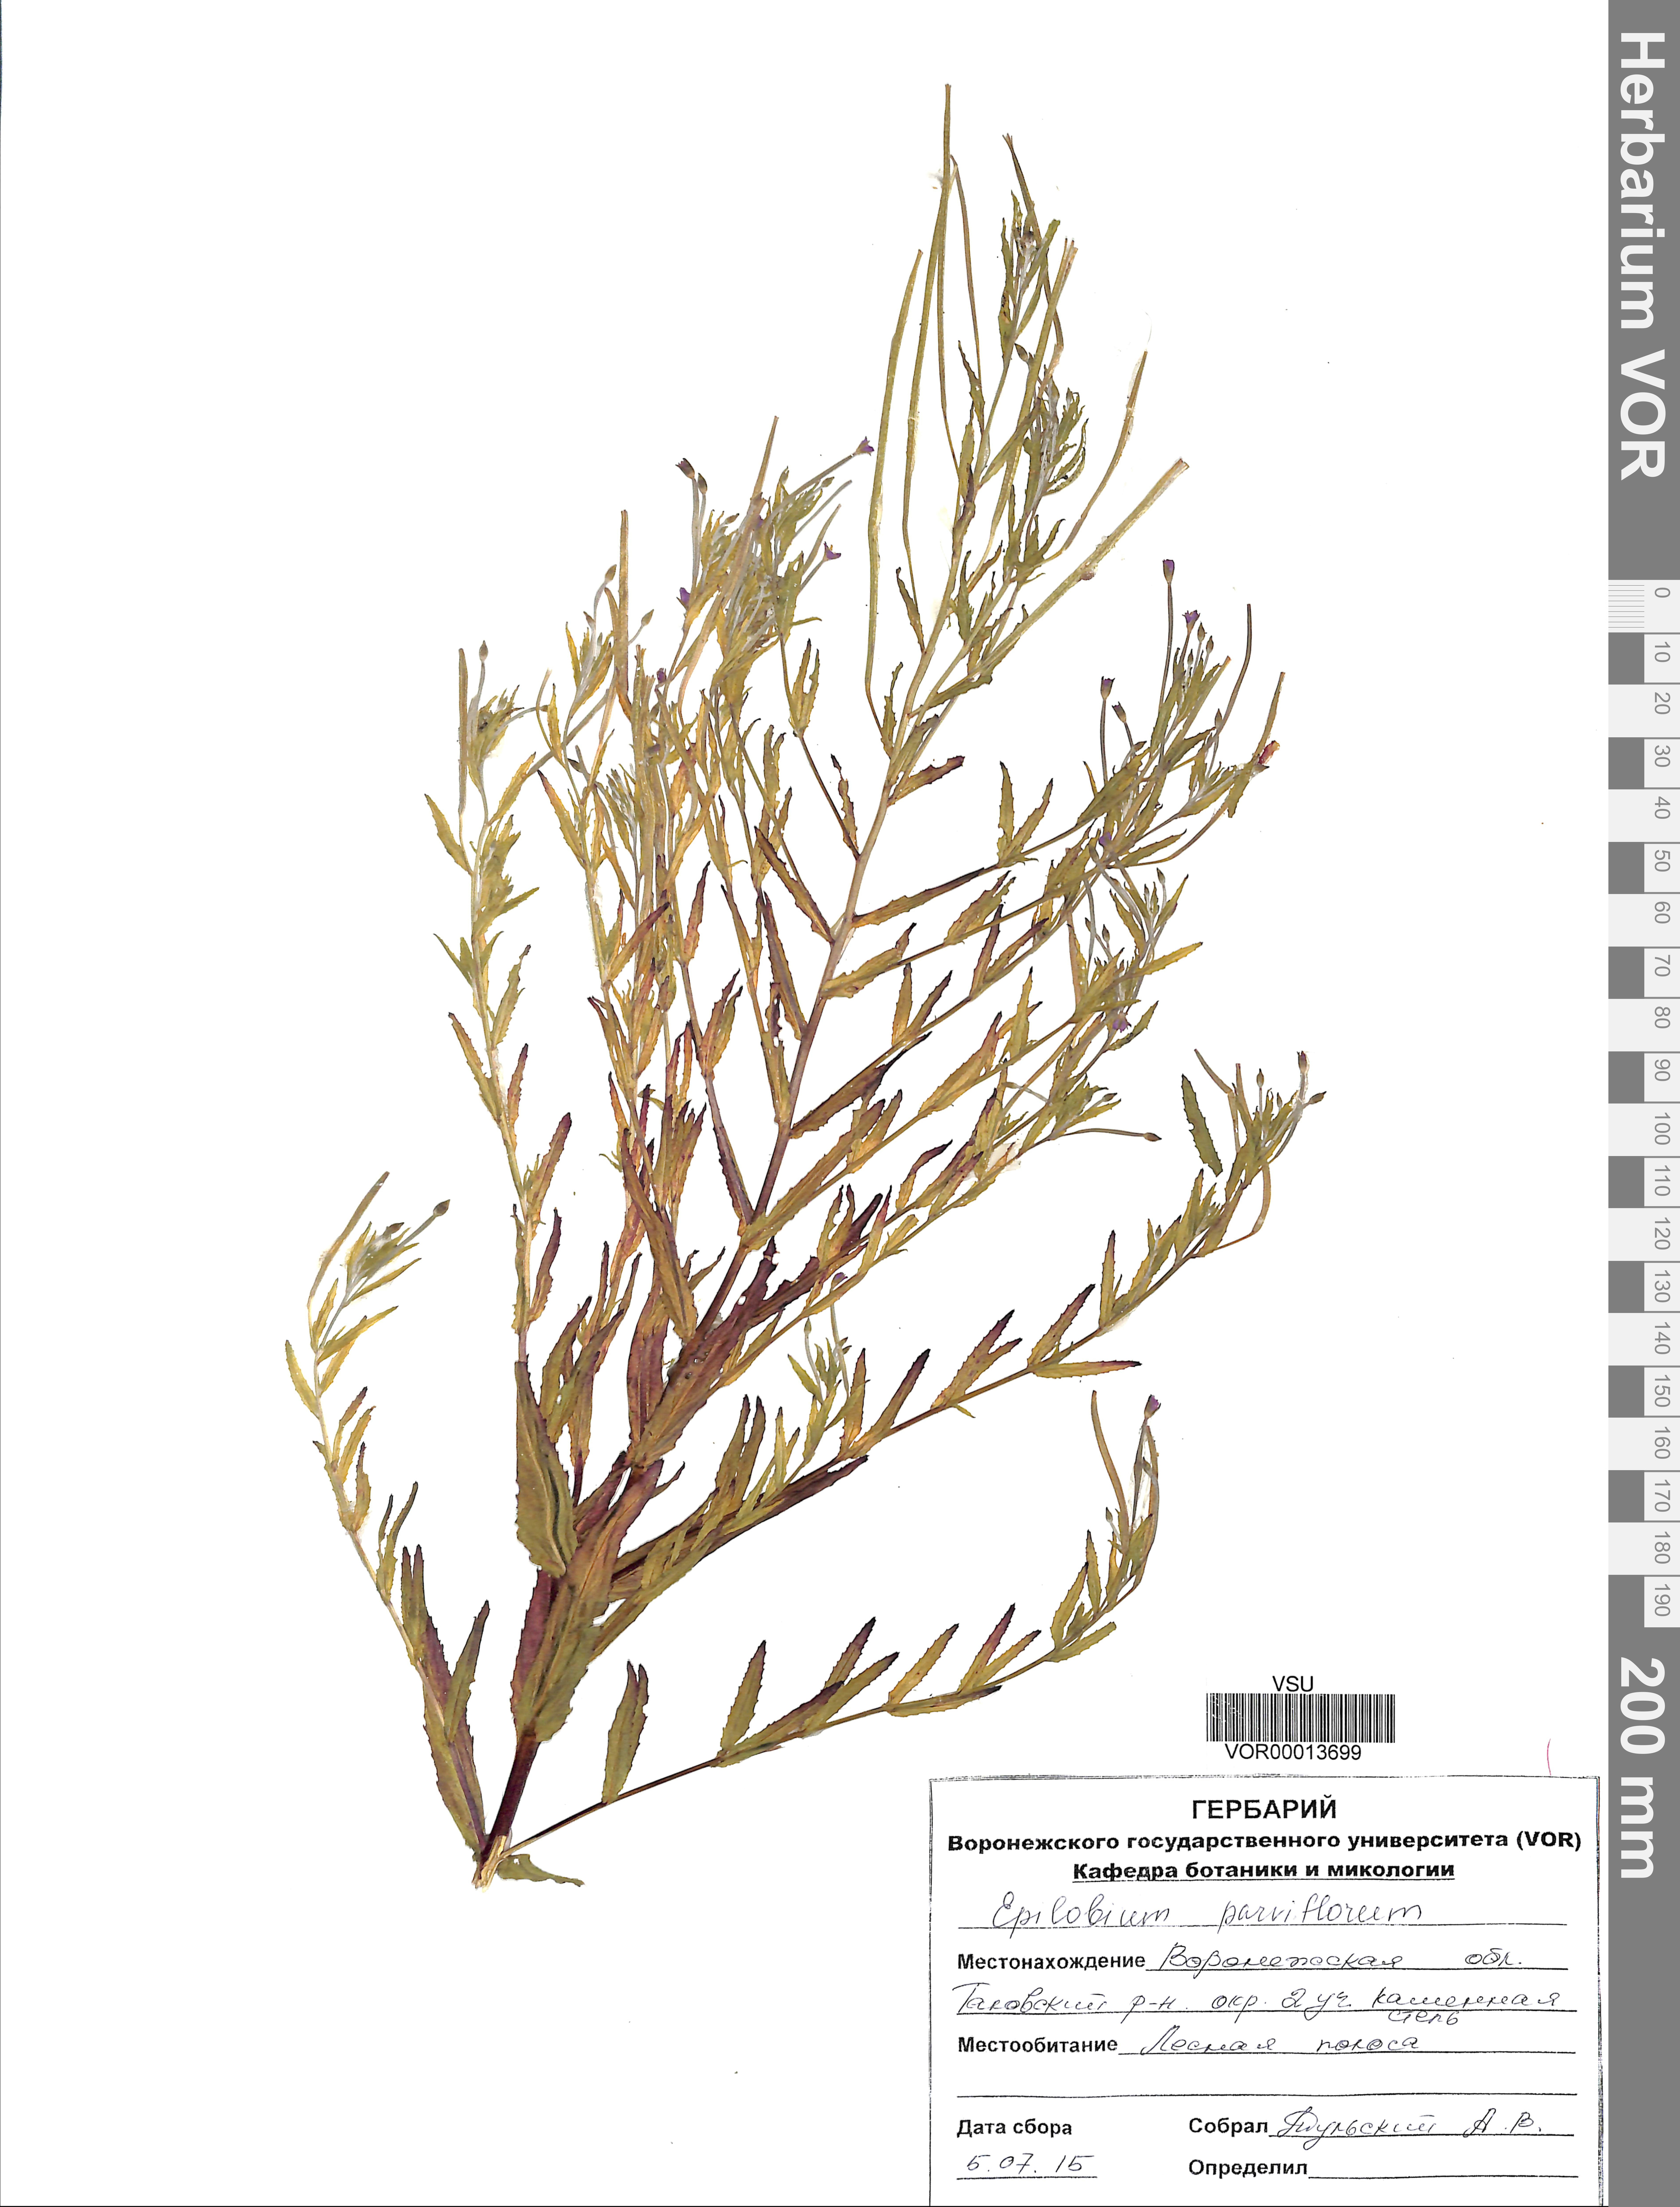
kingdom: Plantae
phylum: Tracheophyta
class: Magnoliopsida
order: Myrtales
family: Onagraceae
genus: Epilobium
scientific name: Epilobium parviflorum
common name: Hoary willowherb
